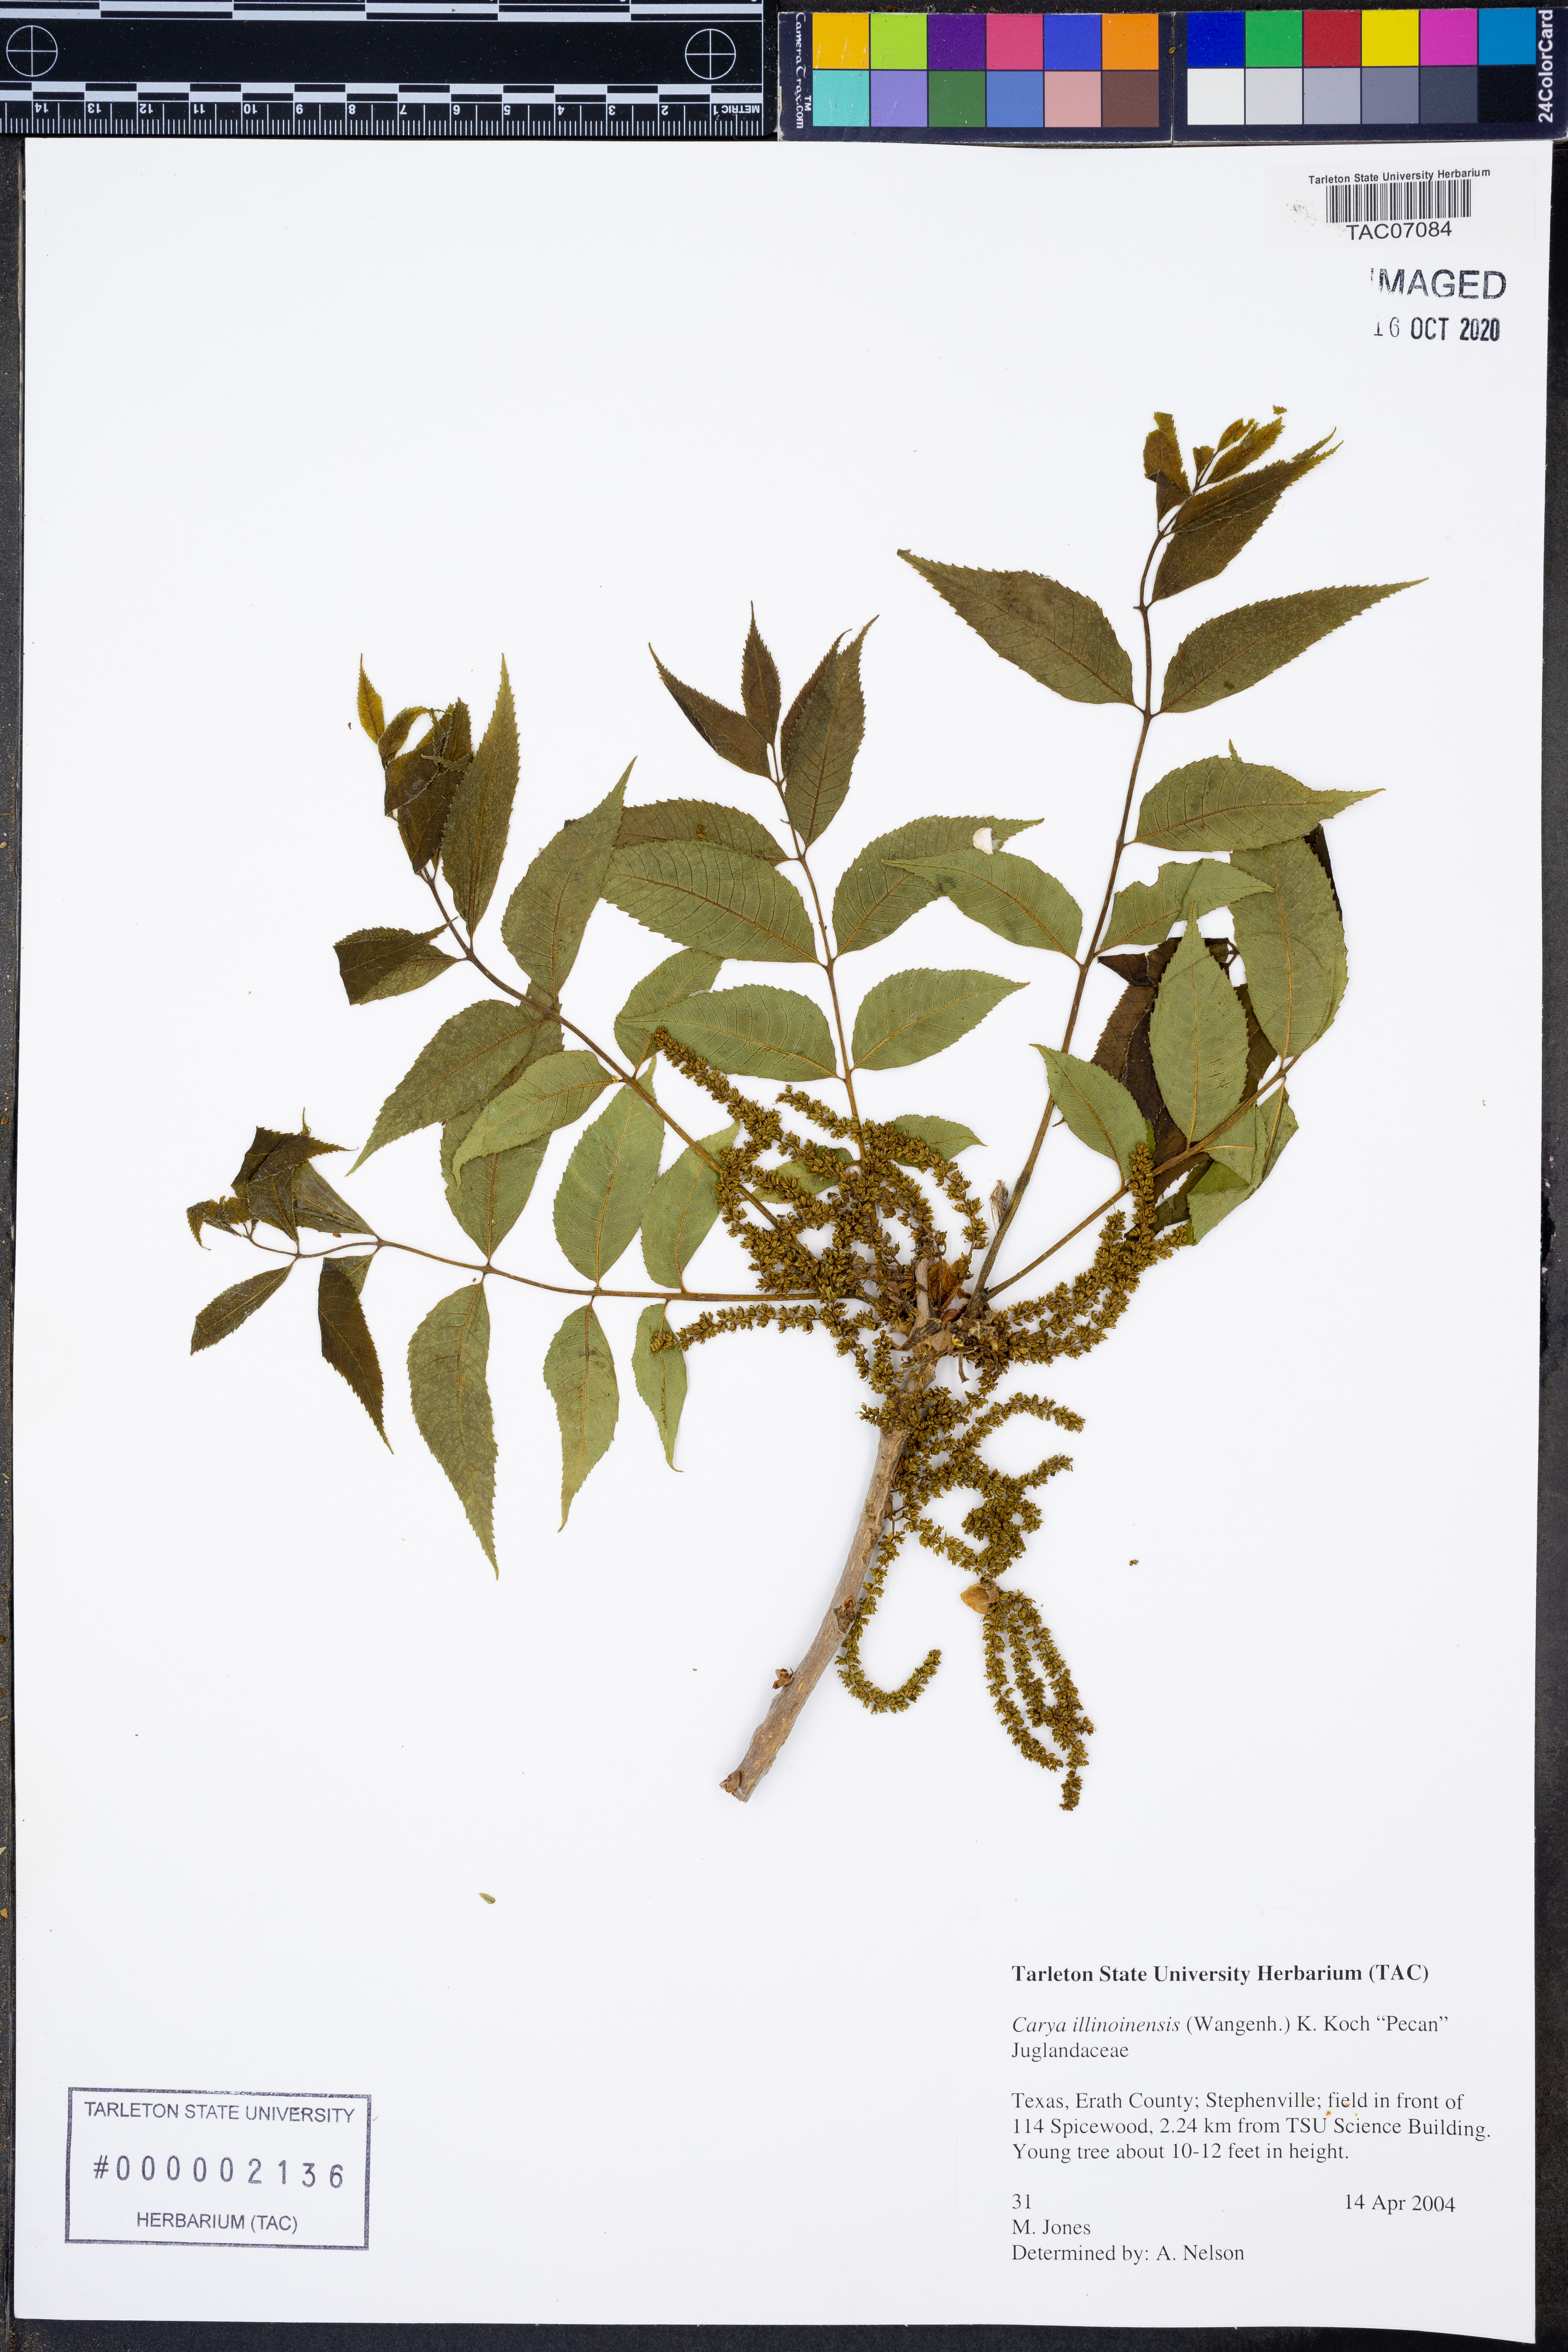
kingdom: Plantae
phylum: Tracheophyta
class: Magnoliopsida
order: Fagales
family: Juglandaceae
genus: Carya
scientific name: Carya illinoinensis
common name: Pecan
